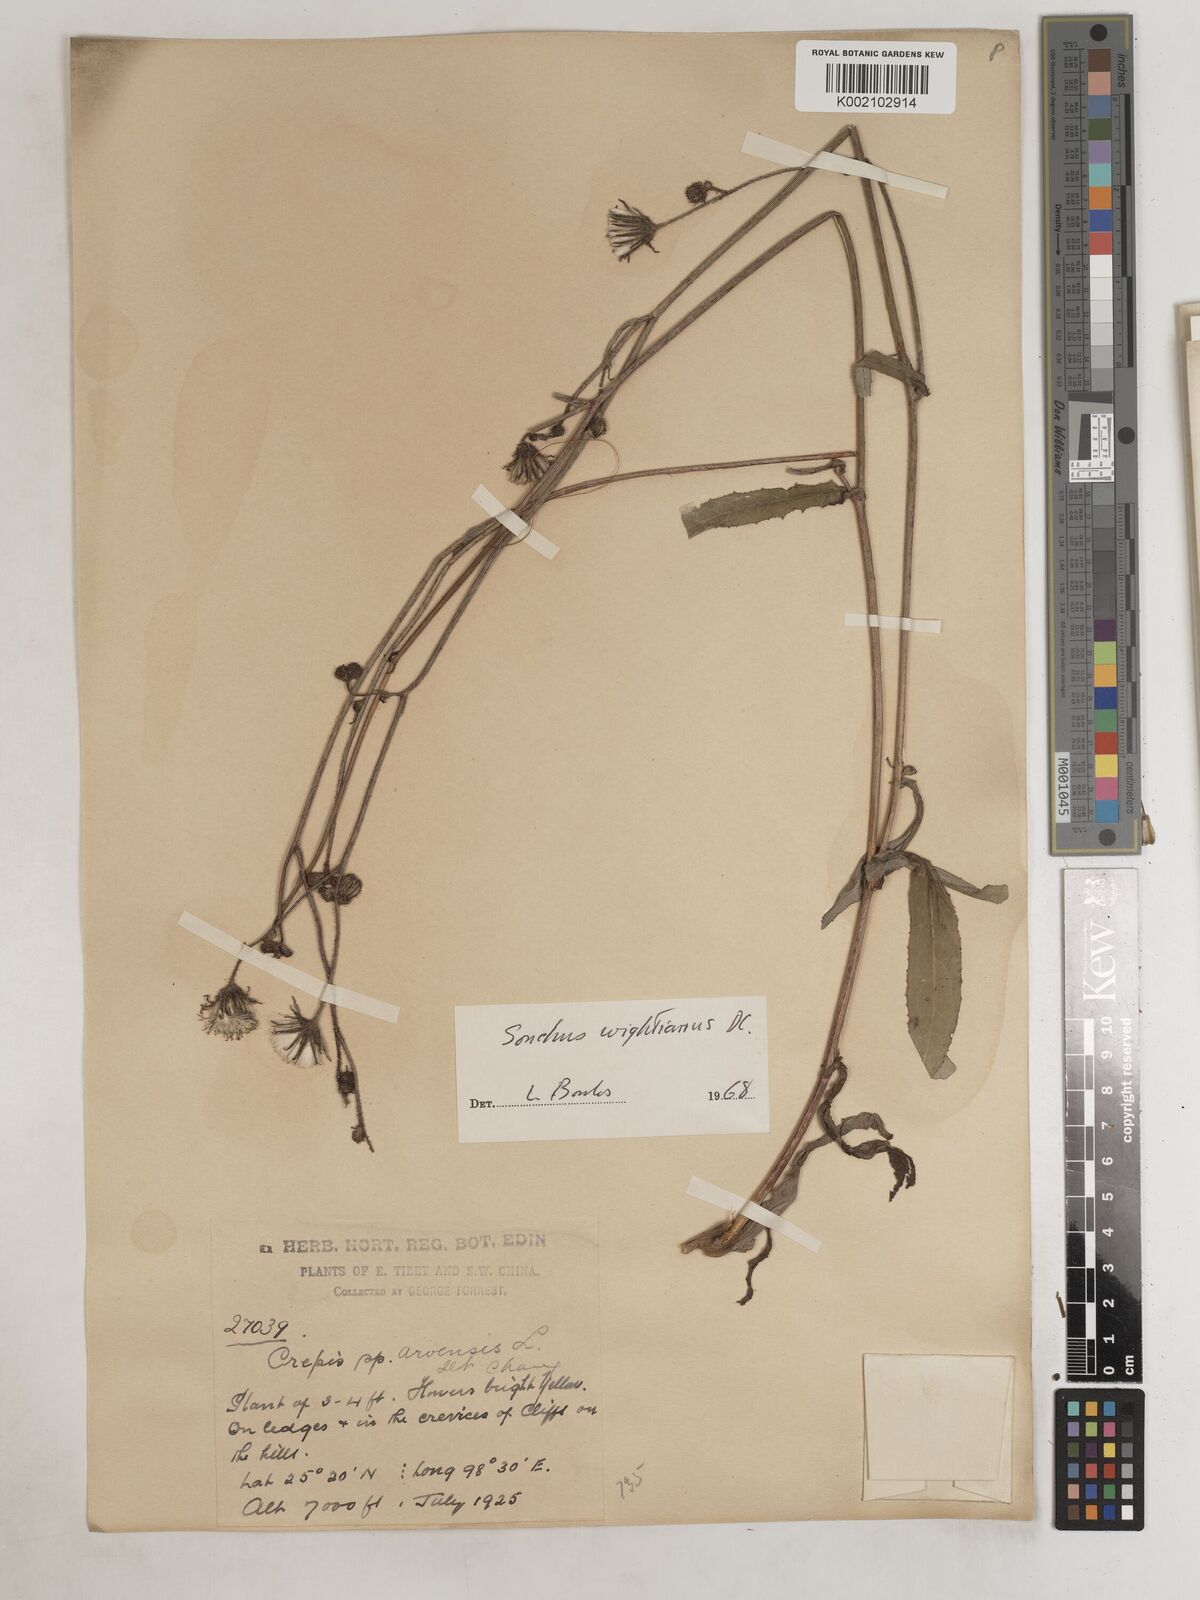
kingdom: Plantae
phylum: Tracheophyta
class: Magnoliopsida
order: Asterales
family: Asteraceae
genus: Sonchus
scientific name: Sonchus wightianus
